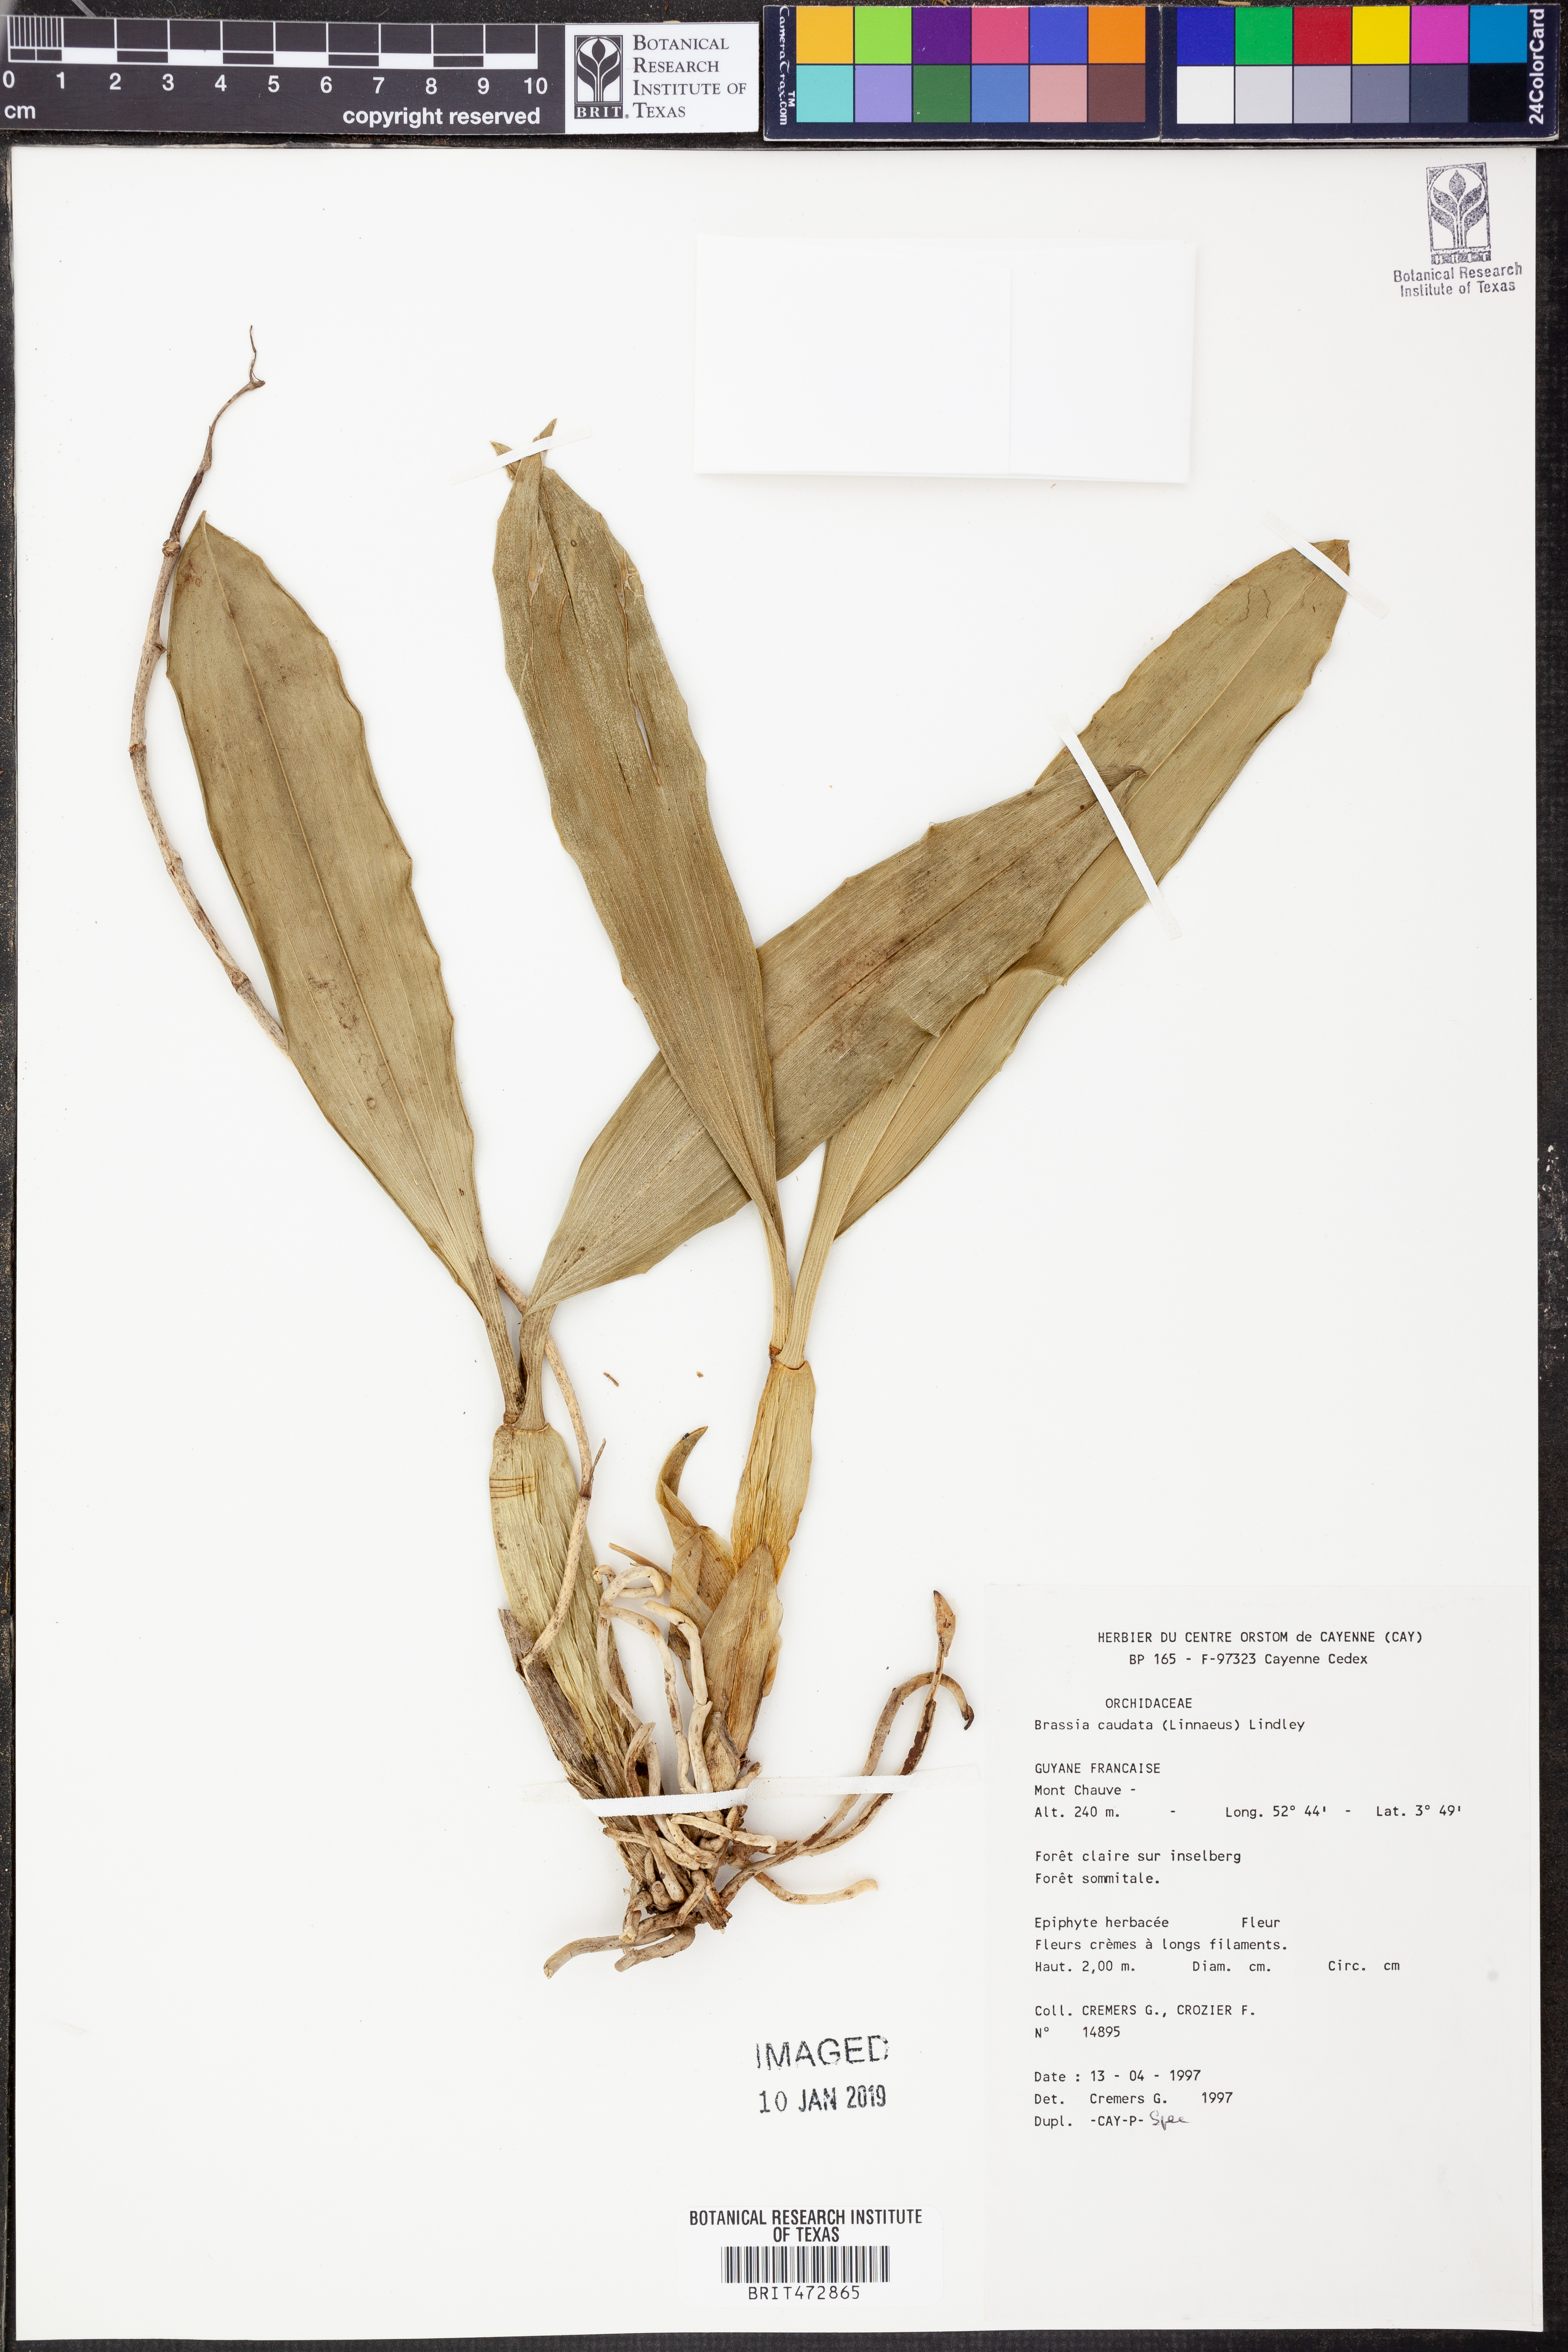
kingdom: Plantae
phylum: Tracheophyta
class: Liliopsida
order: Asparagales
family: Orchidaceae
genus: Brassia
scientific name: Brassia caudata
